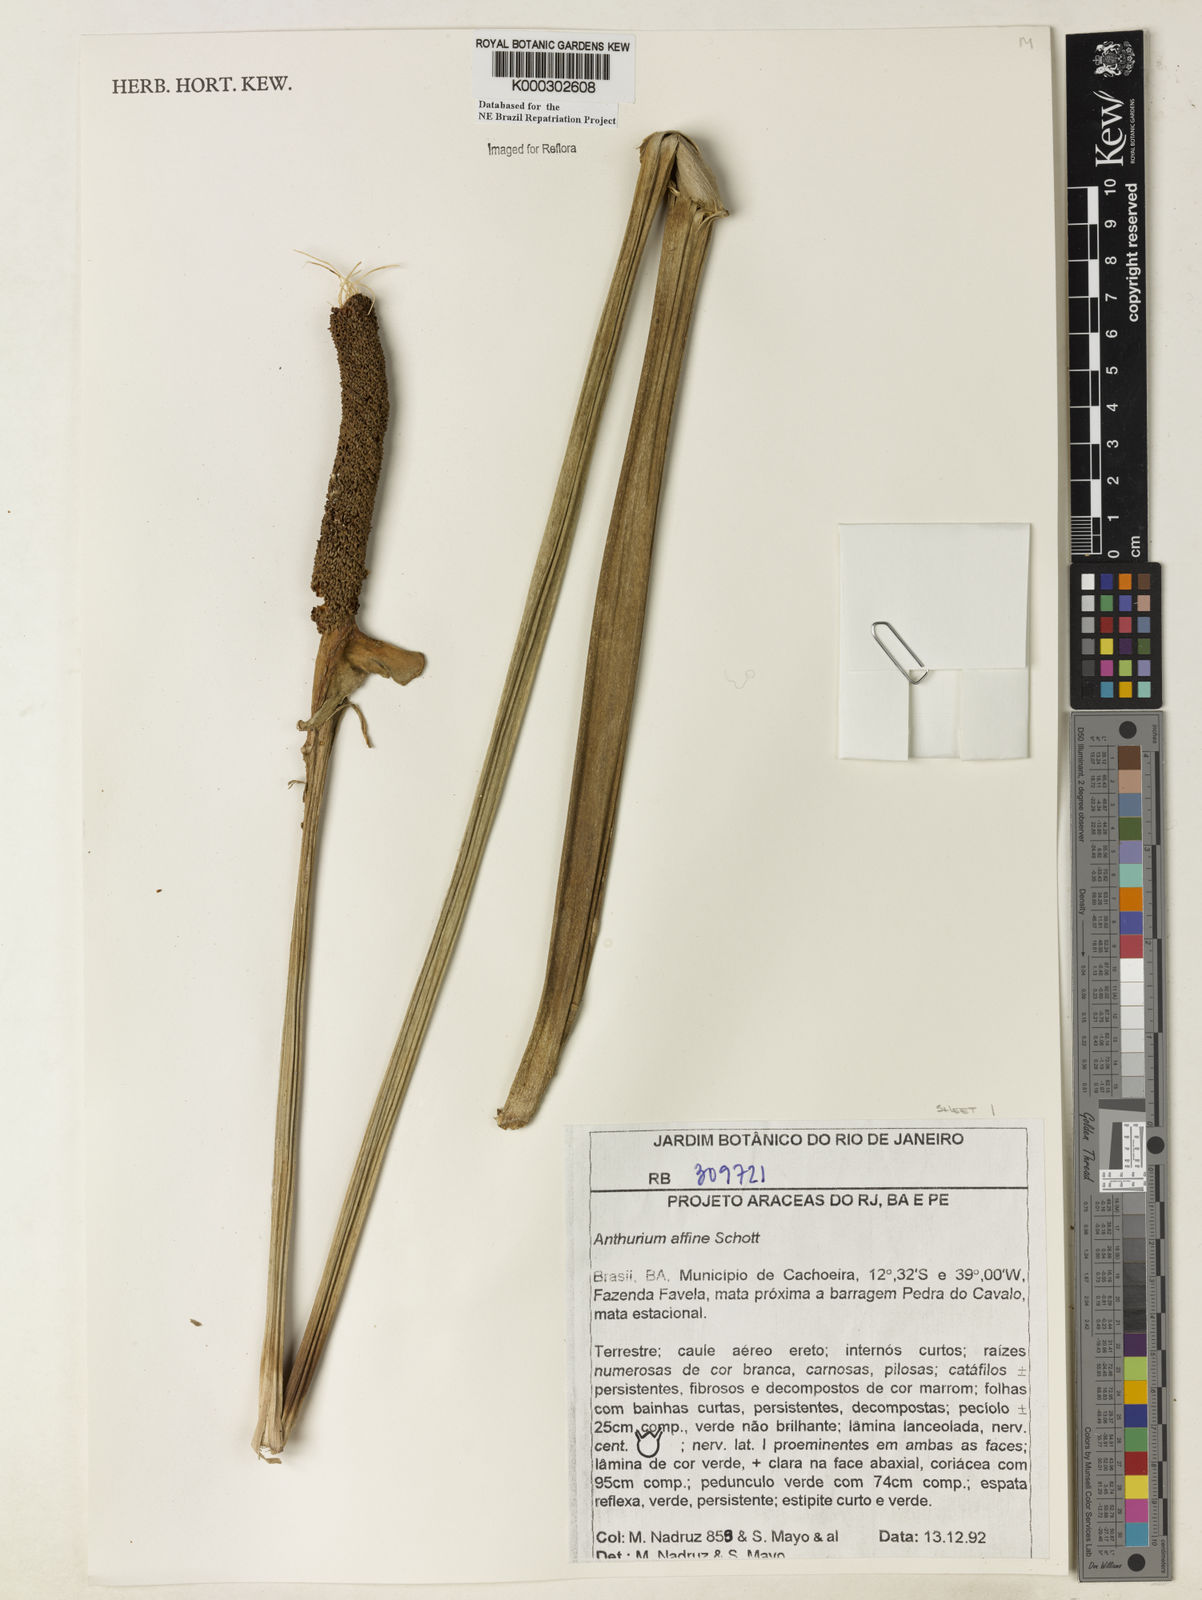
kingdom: Plantae
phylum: Tracheophyta
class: Liliopsida
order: Alismatales
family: Araceae
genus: Anthurium
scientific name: Anthurium affine
